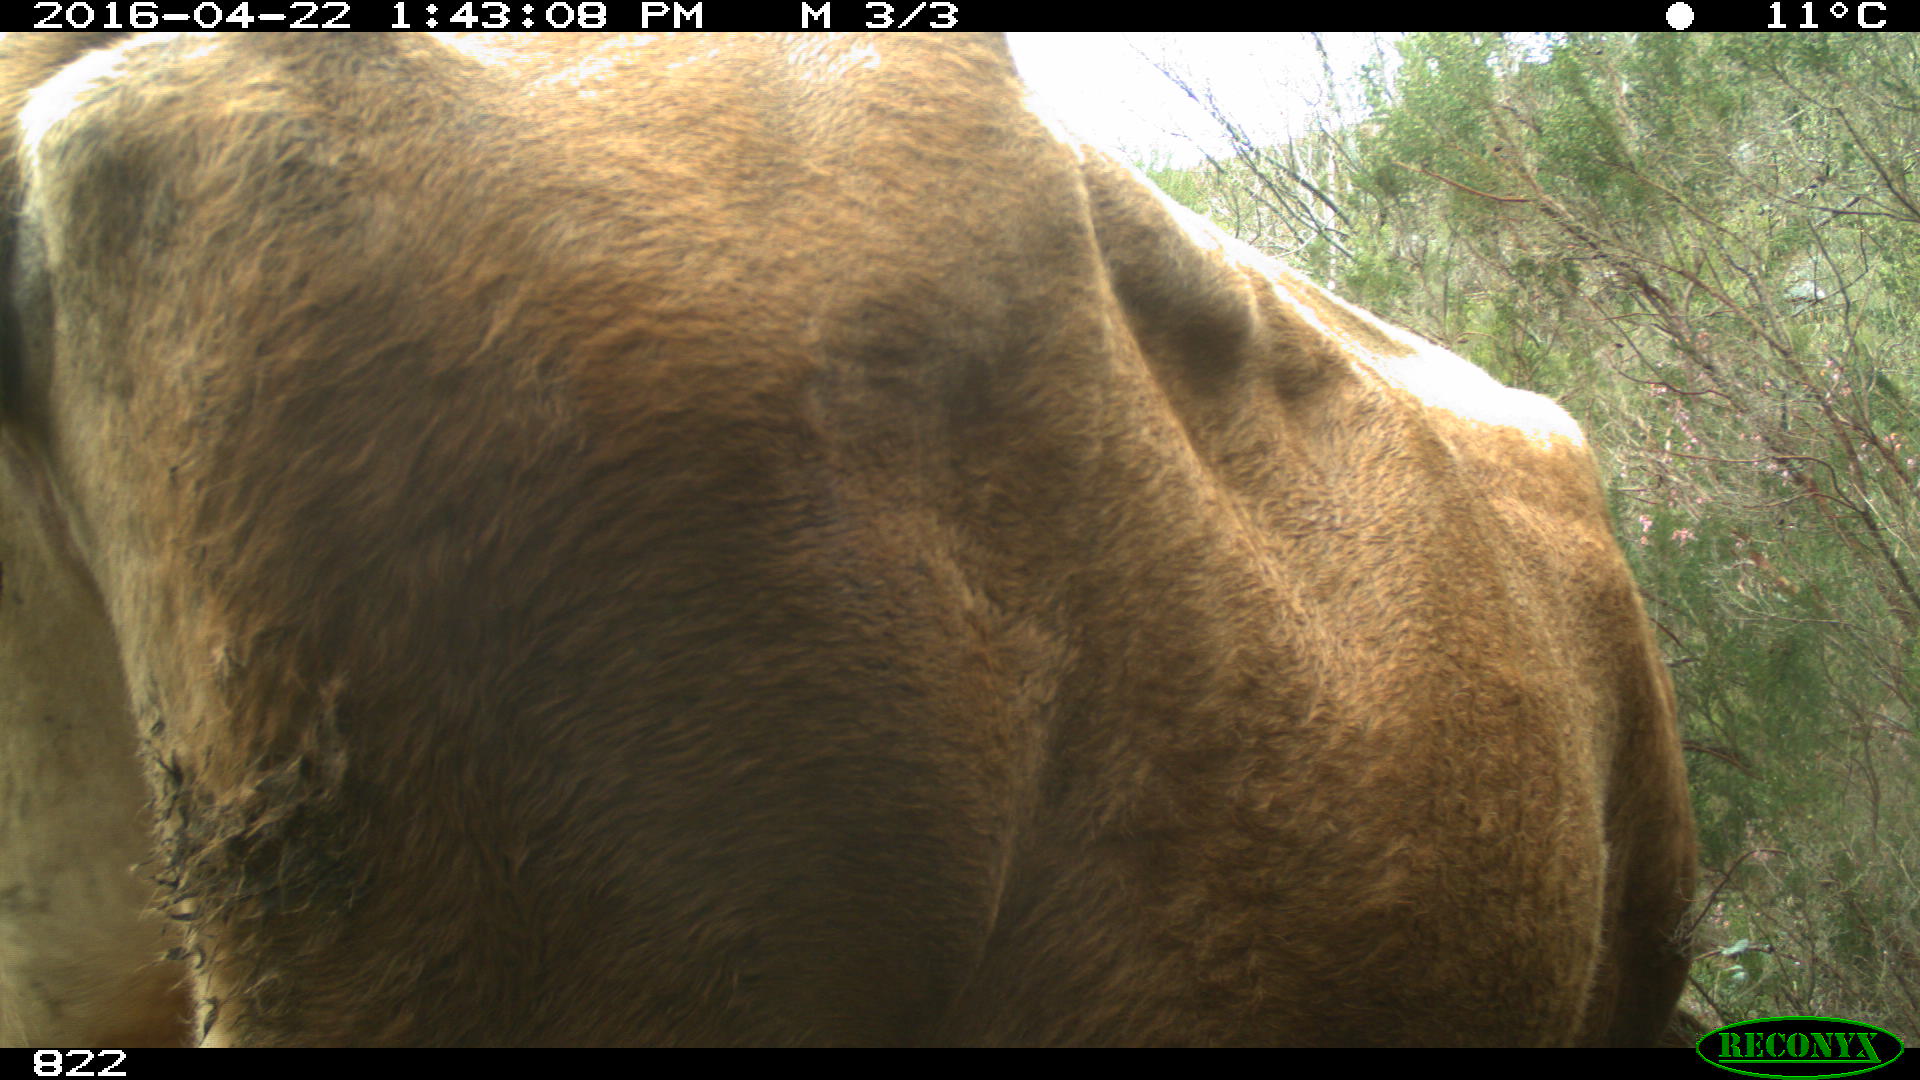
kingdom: Animalia
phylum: Chordata
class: Mammalia
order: Artiodactyla
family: Bovidae
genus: Bos
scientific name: Bos taurus
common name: Domesticated cattle
